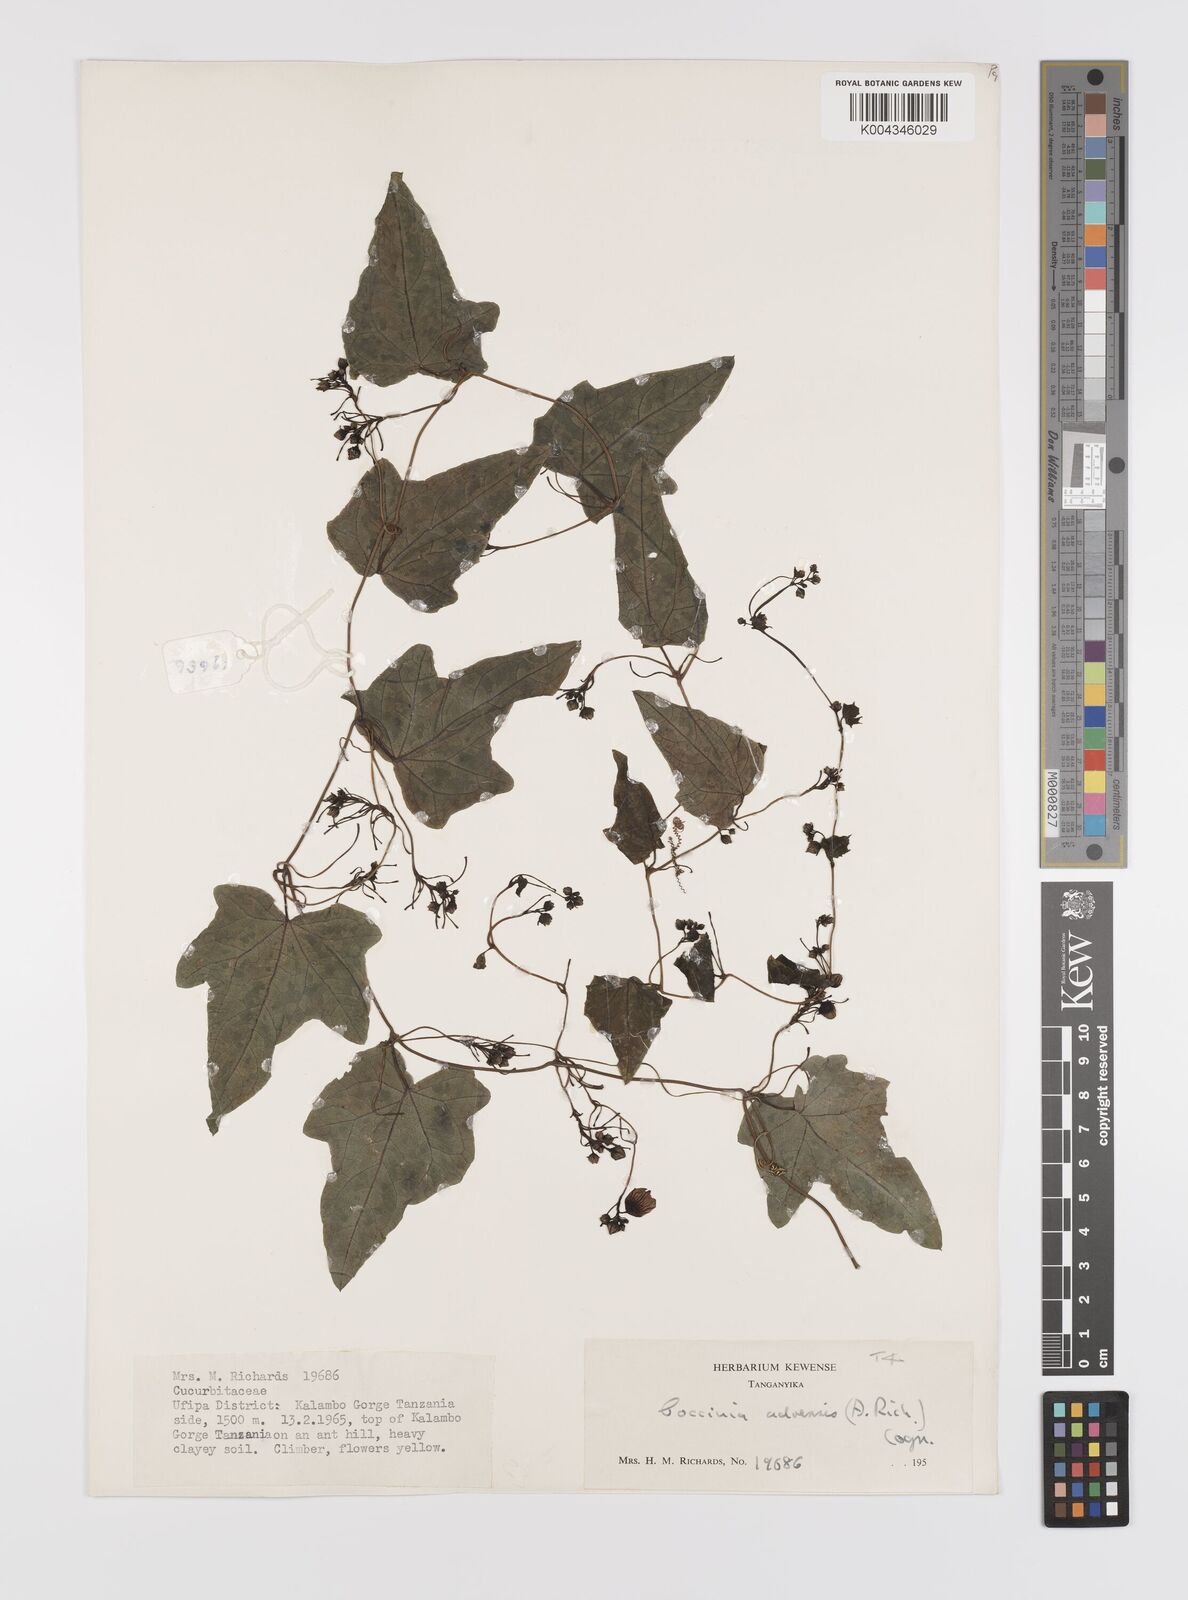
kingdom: Plantae
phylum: Tracheophyta
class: Magnoliopsida
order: Cucurbitales
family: Cucurbitaceae
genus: Coccinia
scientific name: Coccinia adoensis
